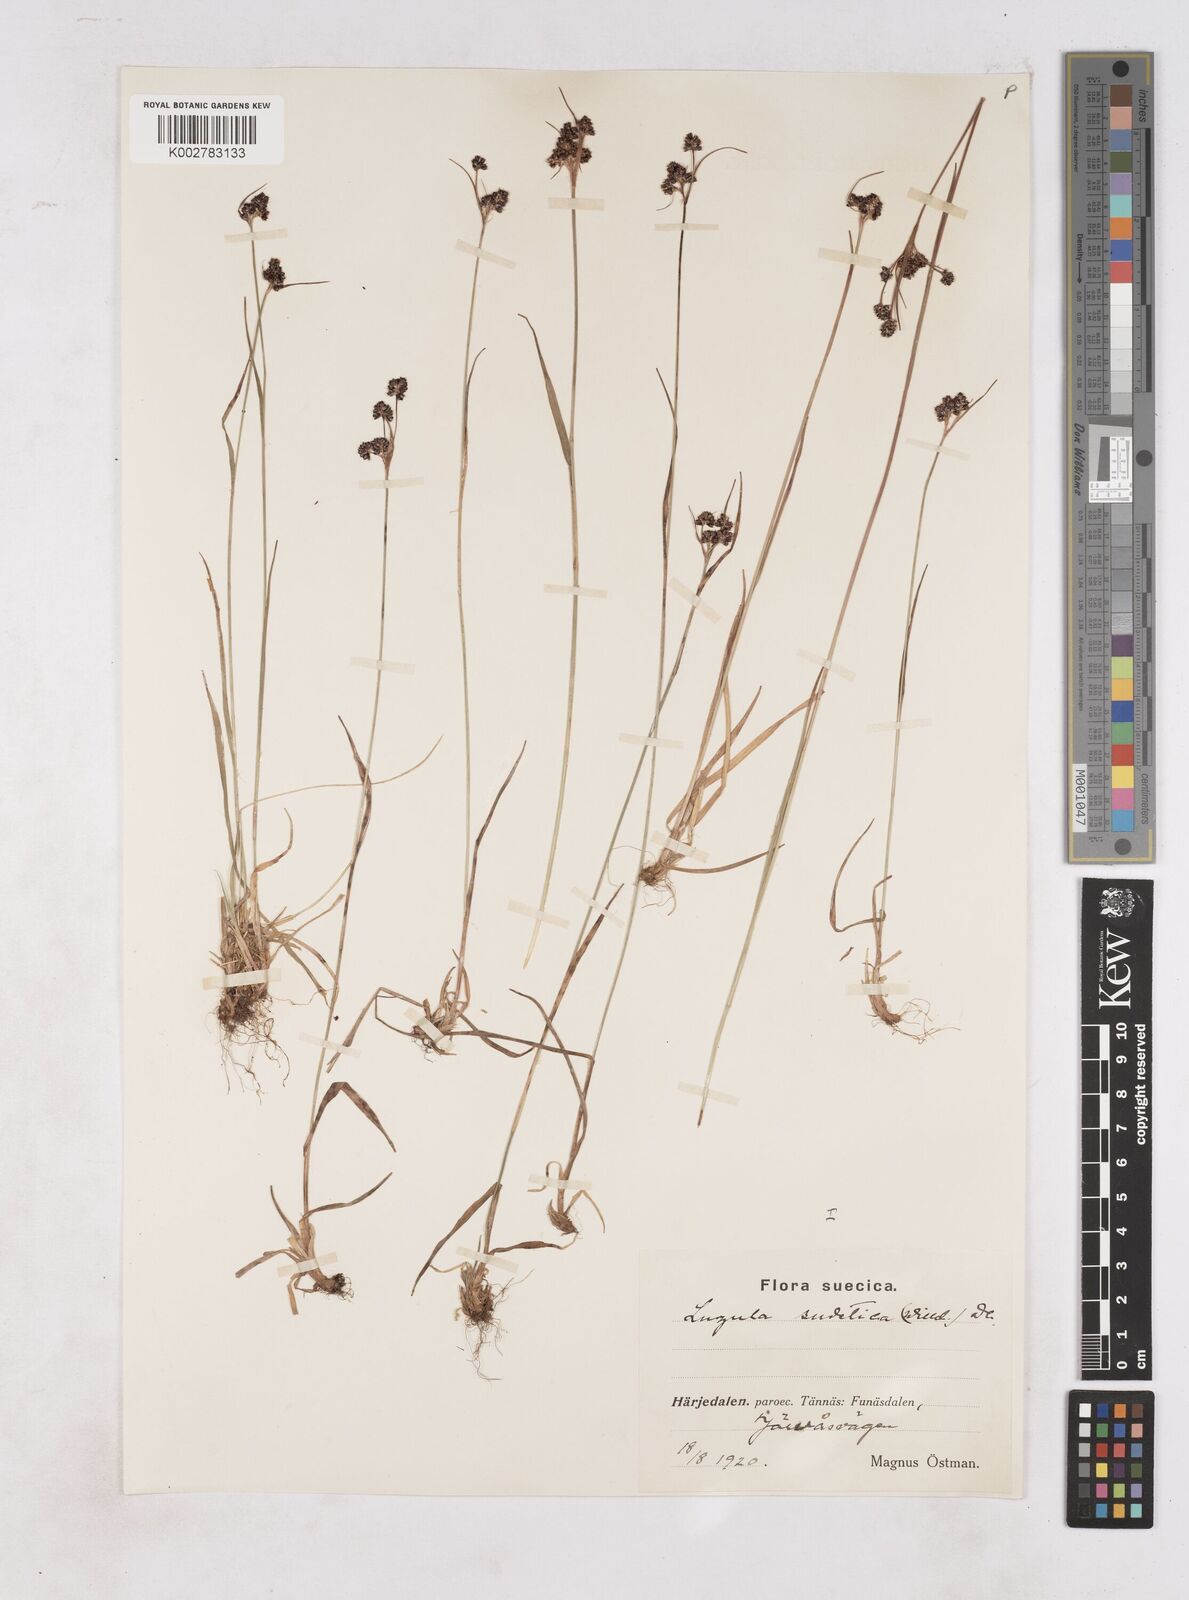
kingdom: Plantae
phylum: Tracheophyta
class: Liliopsida
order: Poales
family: Juncaceae
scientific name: Juncaceae
